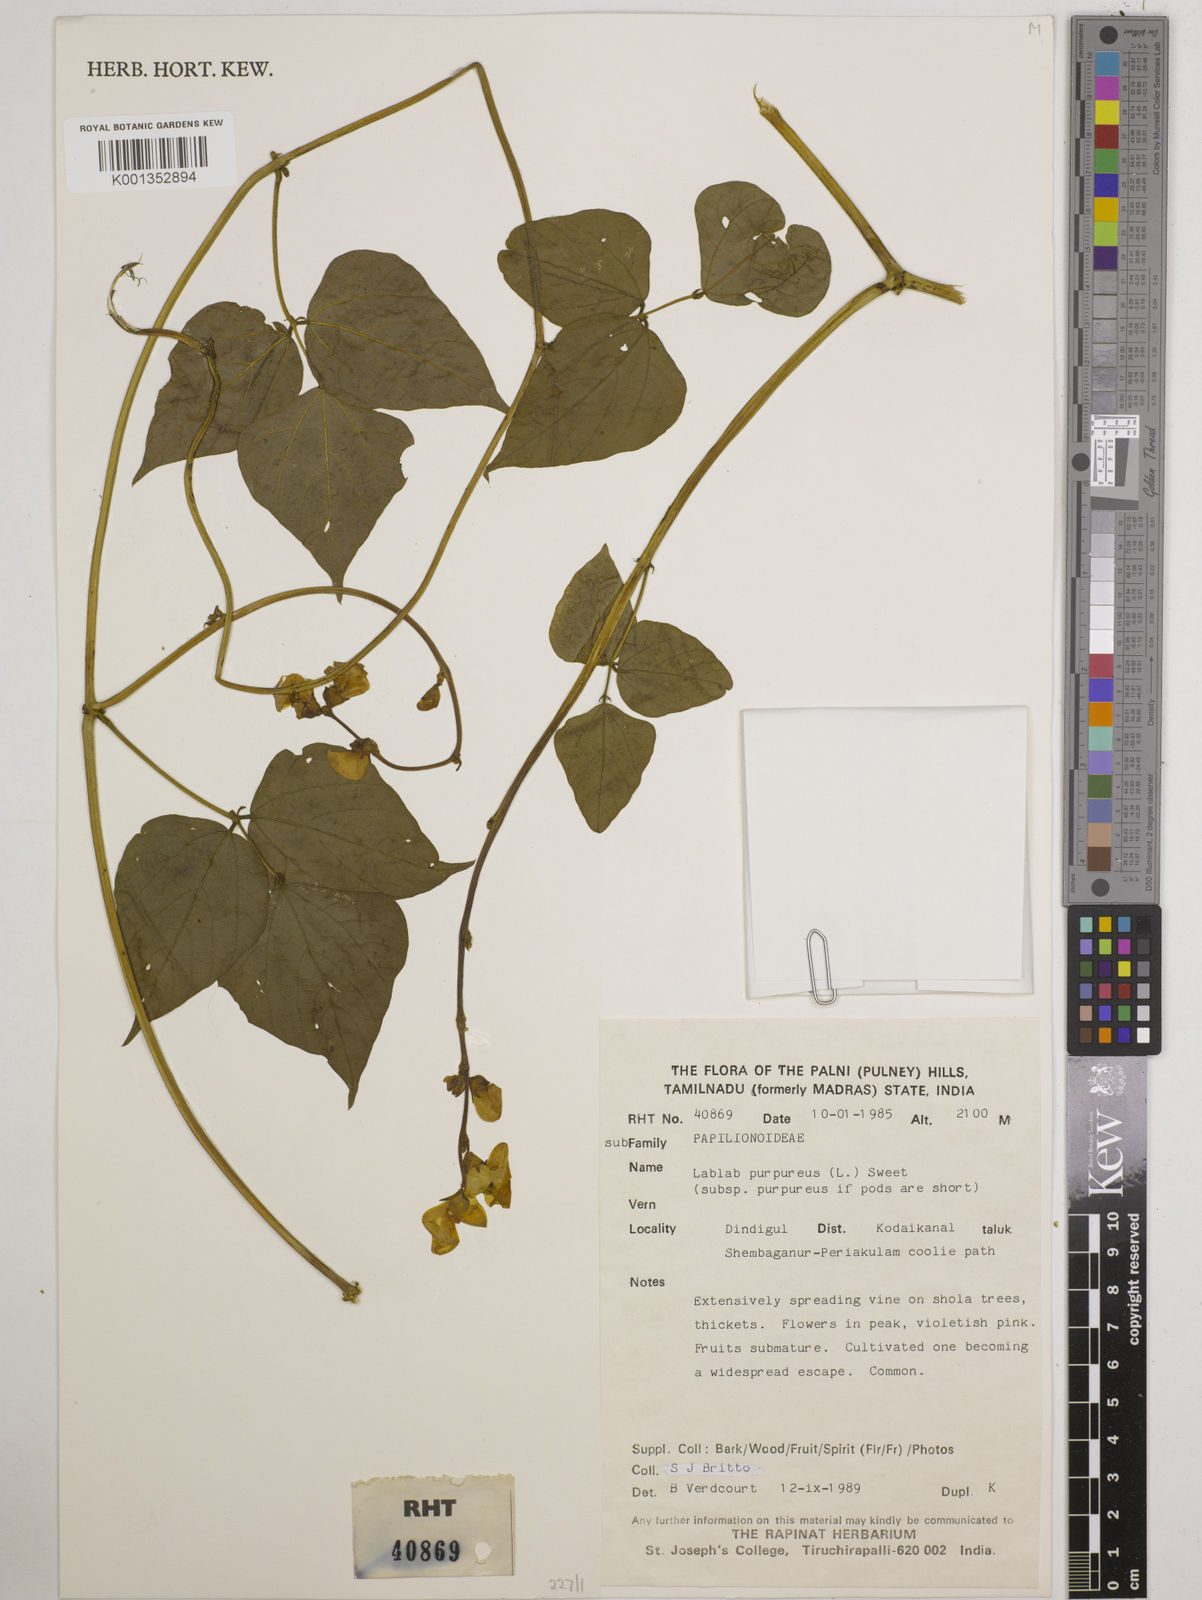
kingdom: Plantae
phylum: Tracheophyta
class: Magnoliopsida
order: Fabales
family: Fabaceae
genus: Lablab
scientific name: Lablab purpureus
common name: Lablab-bean
